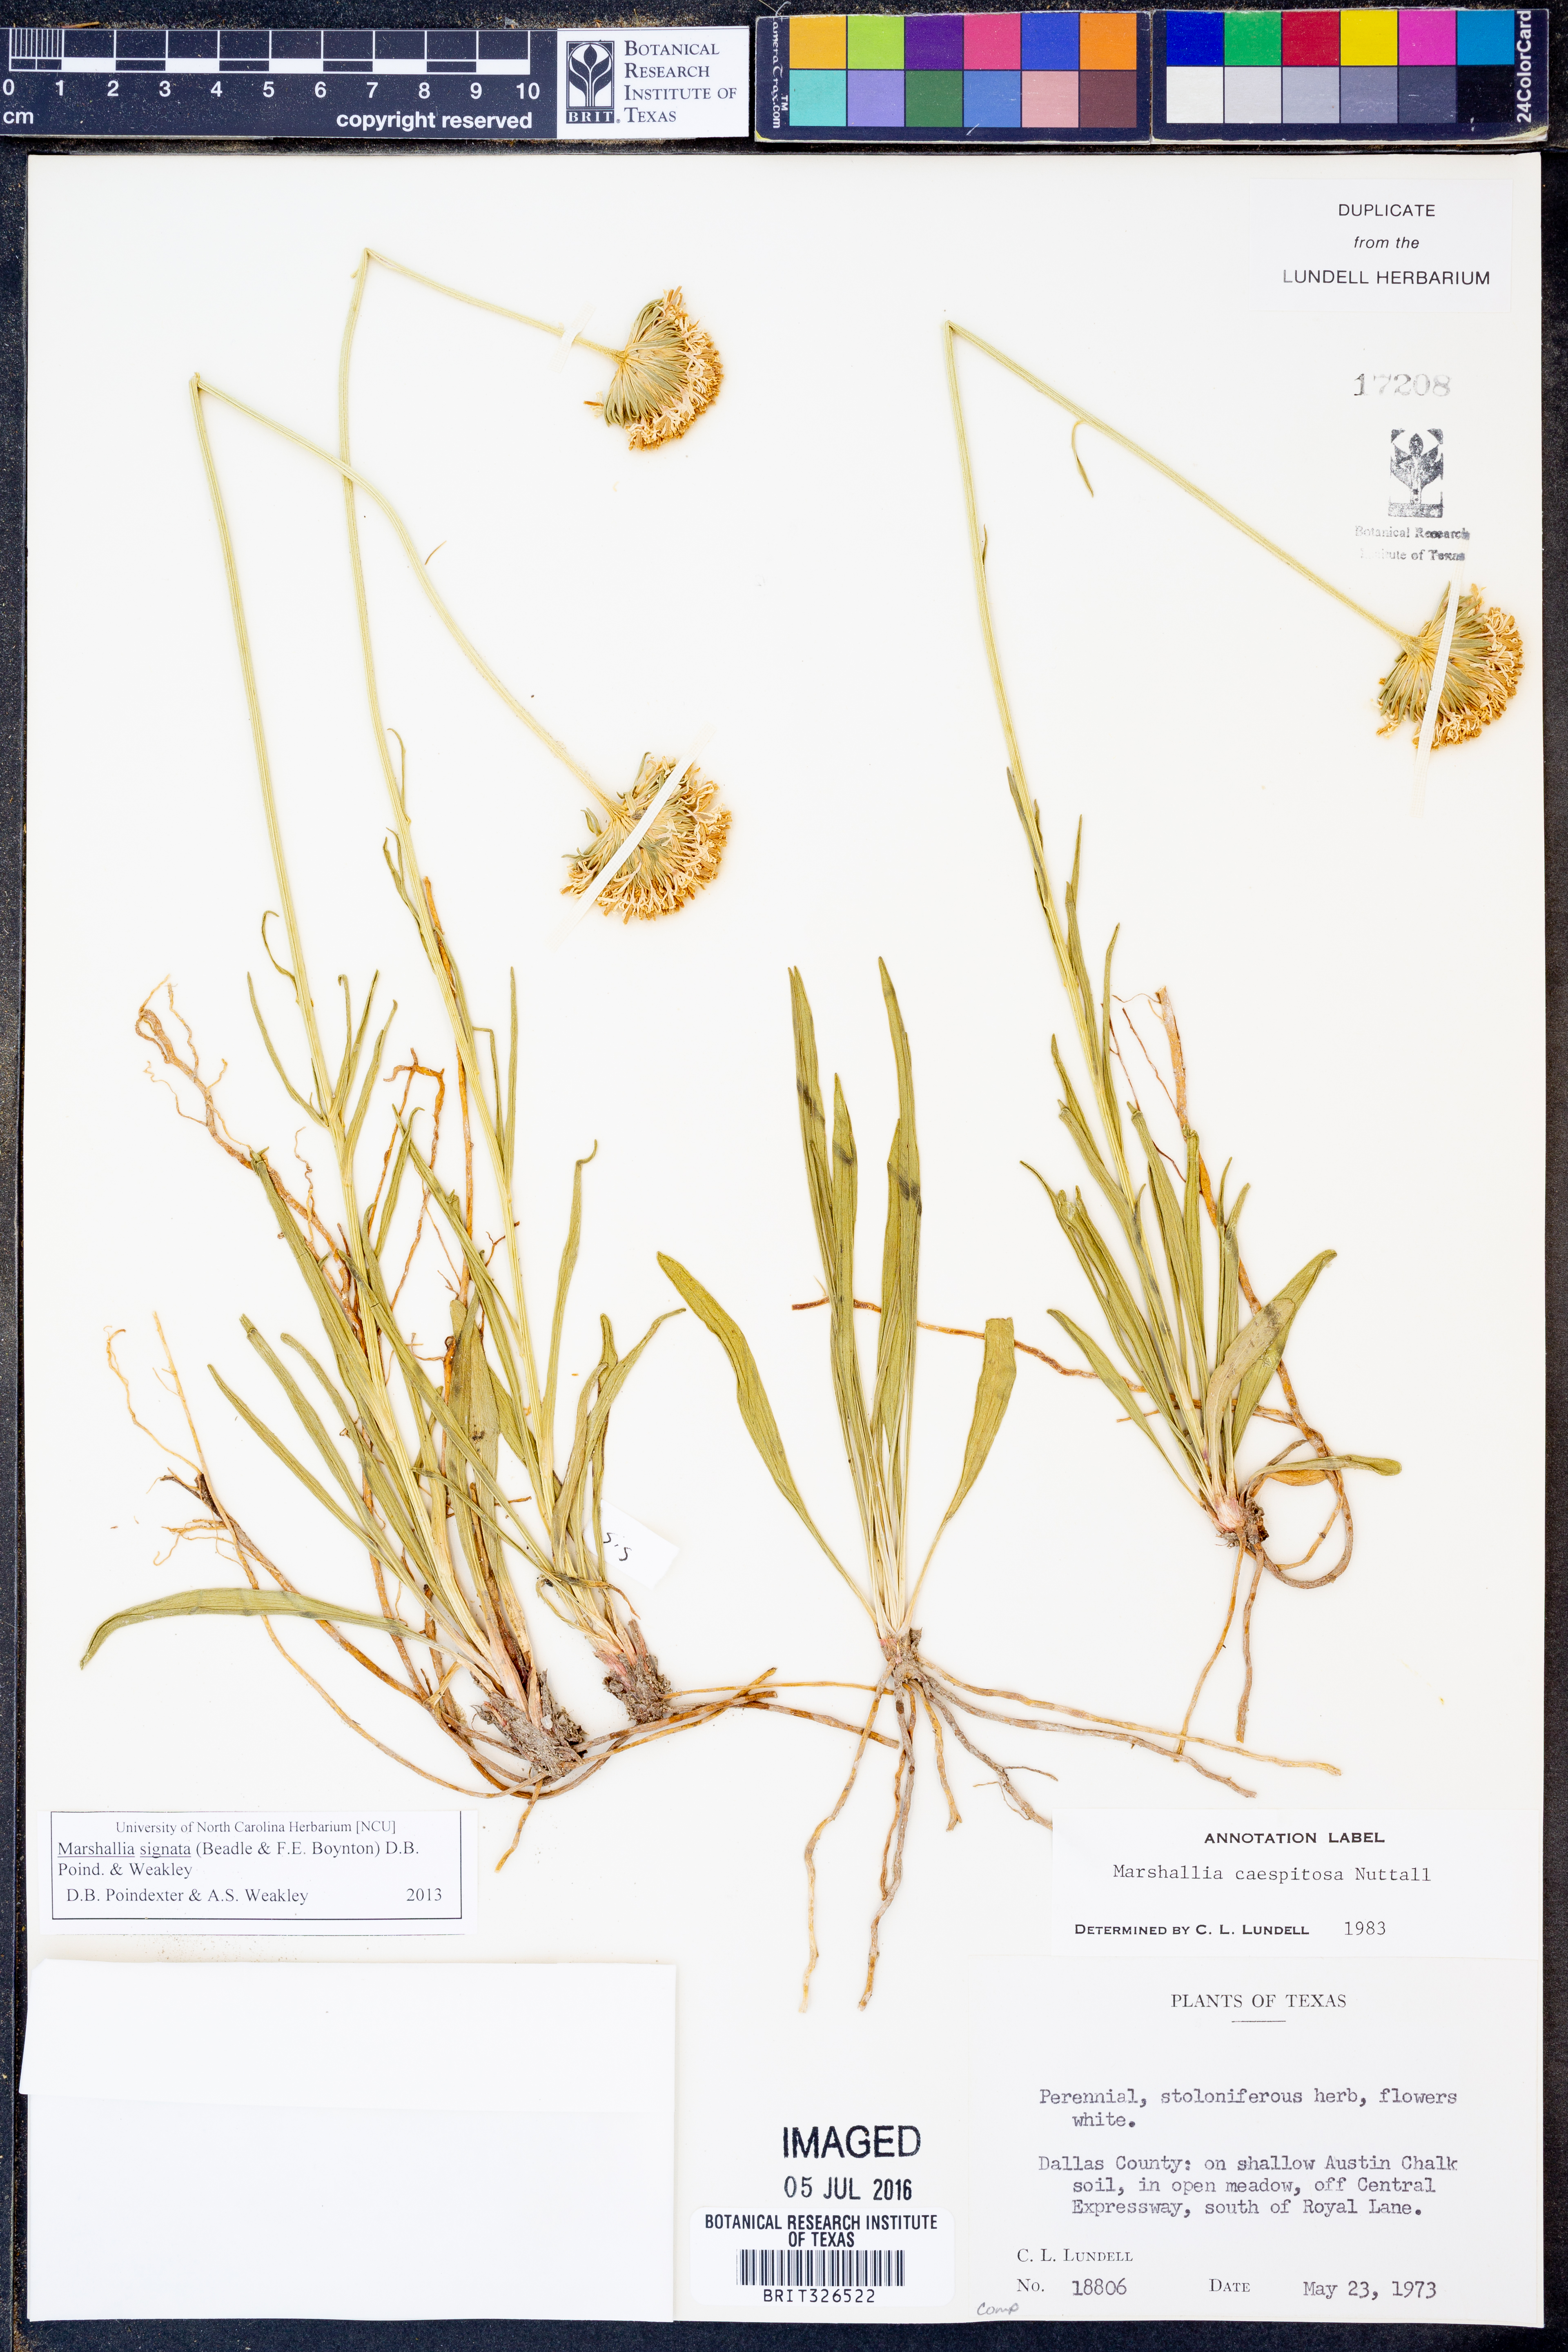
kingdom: Plantae
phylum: Tracheophyta
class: Magnoliopsida
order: Asterales
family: Asteraceae
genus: Marshallia
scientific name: Marshallia
